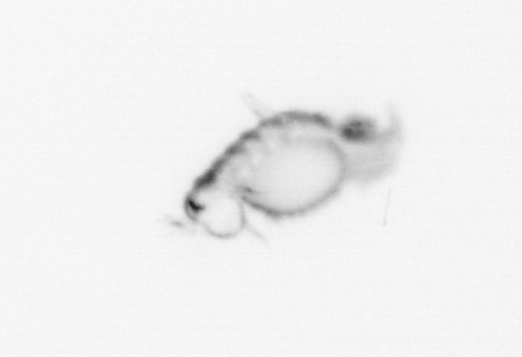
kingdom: Animalia
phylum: Annelida
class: Polychaeta
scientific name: Polychaeta
